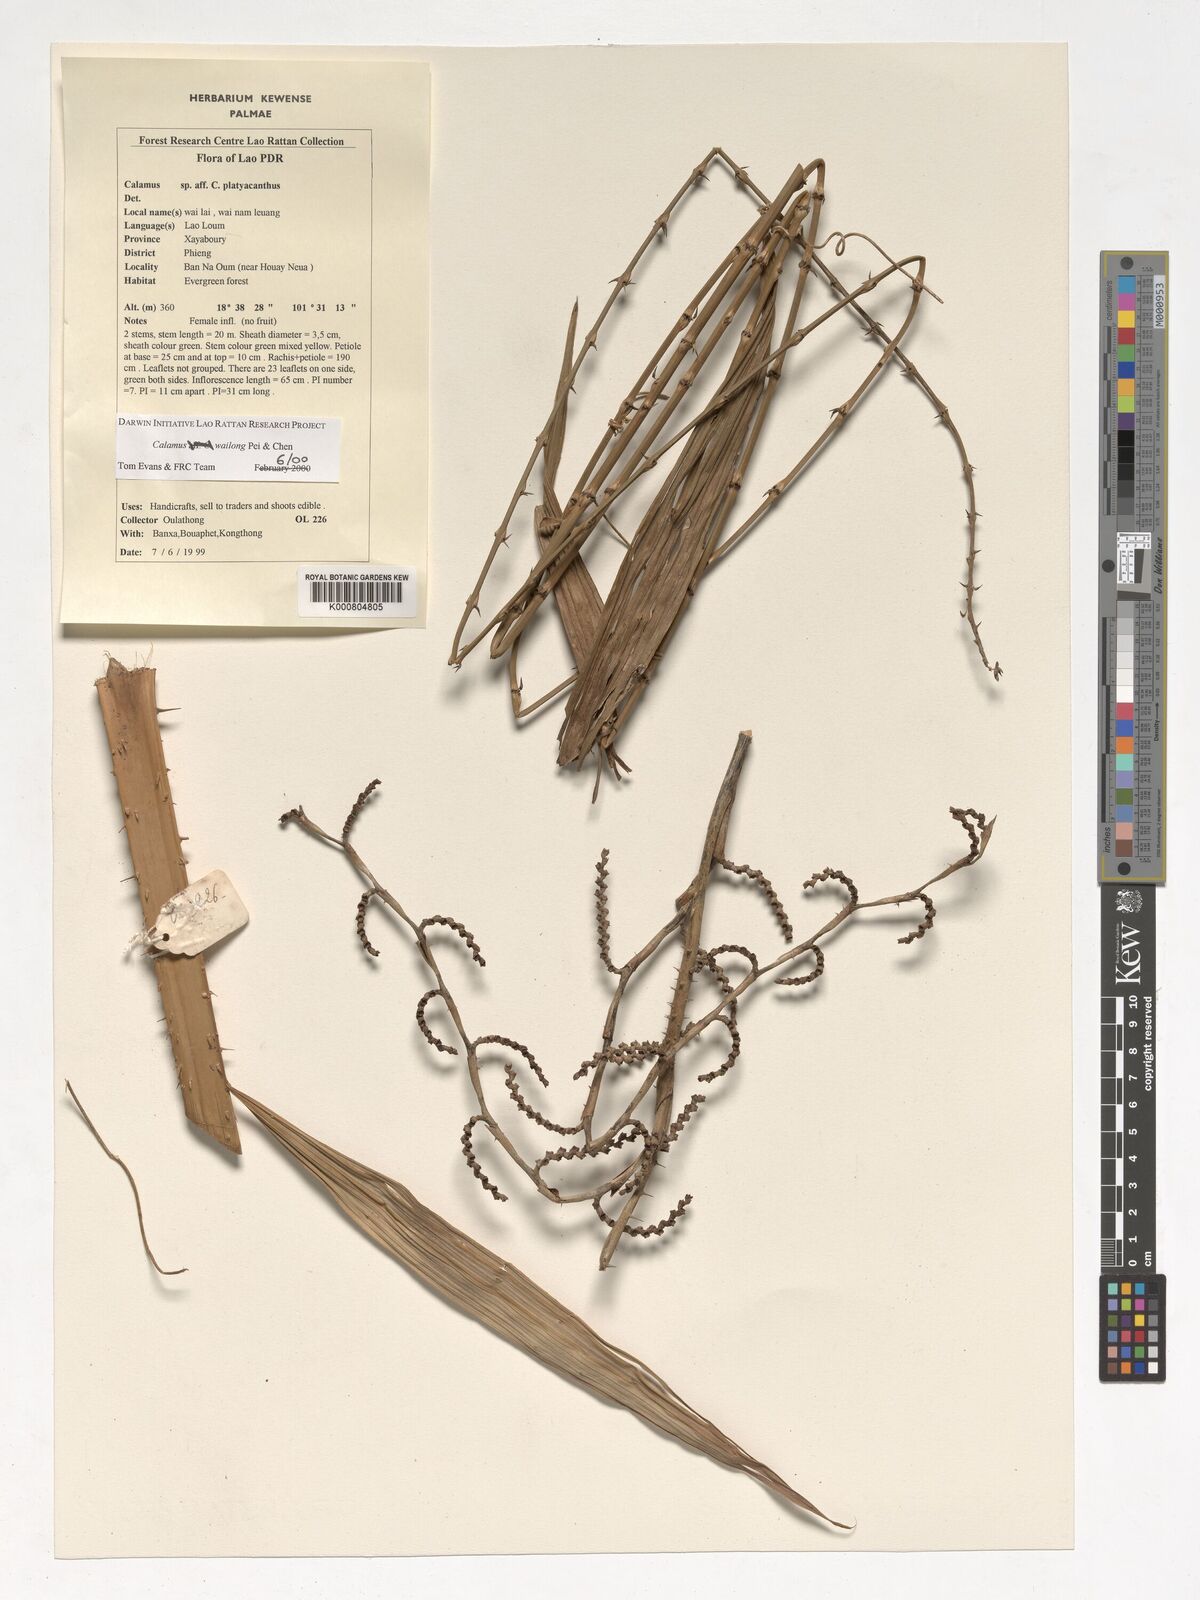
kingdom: Plantae
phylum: Tracheophyta
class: Liliopsida
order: Arecales
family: Arecaceae
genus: Calamus
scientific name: Calamus inermis
